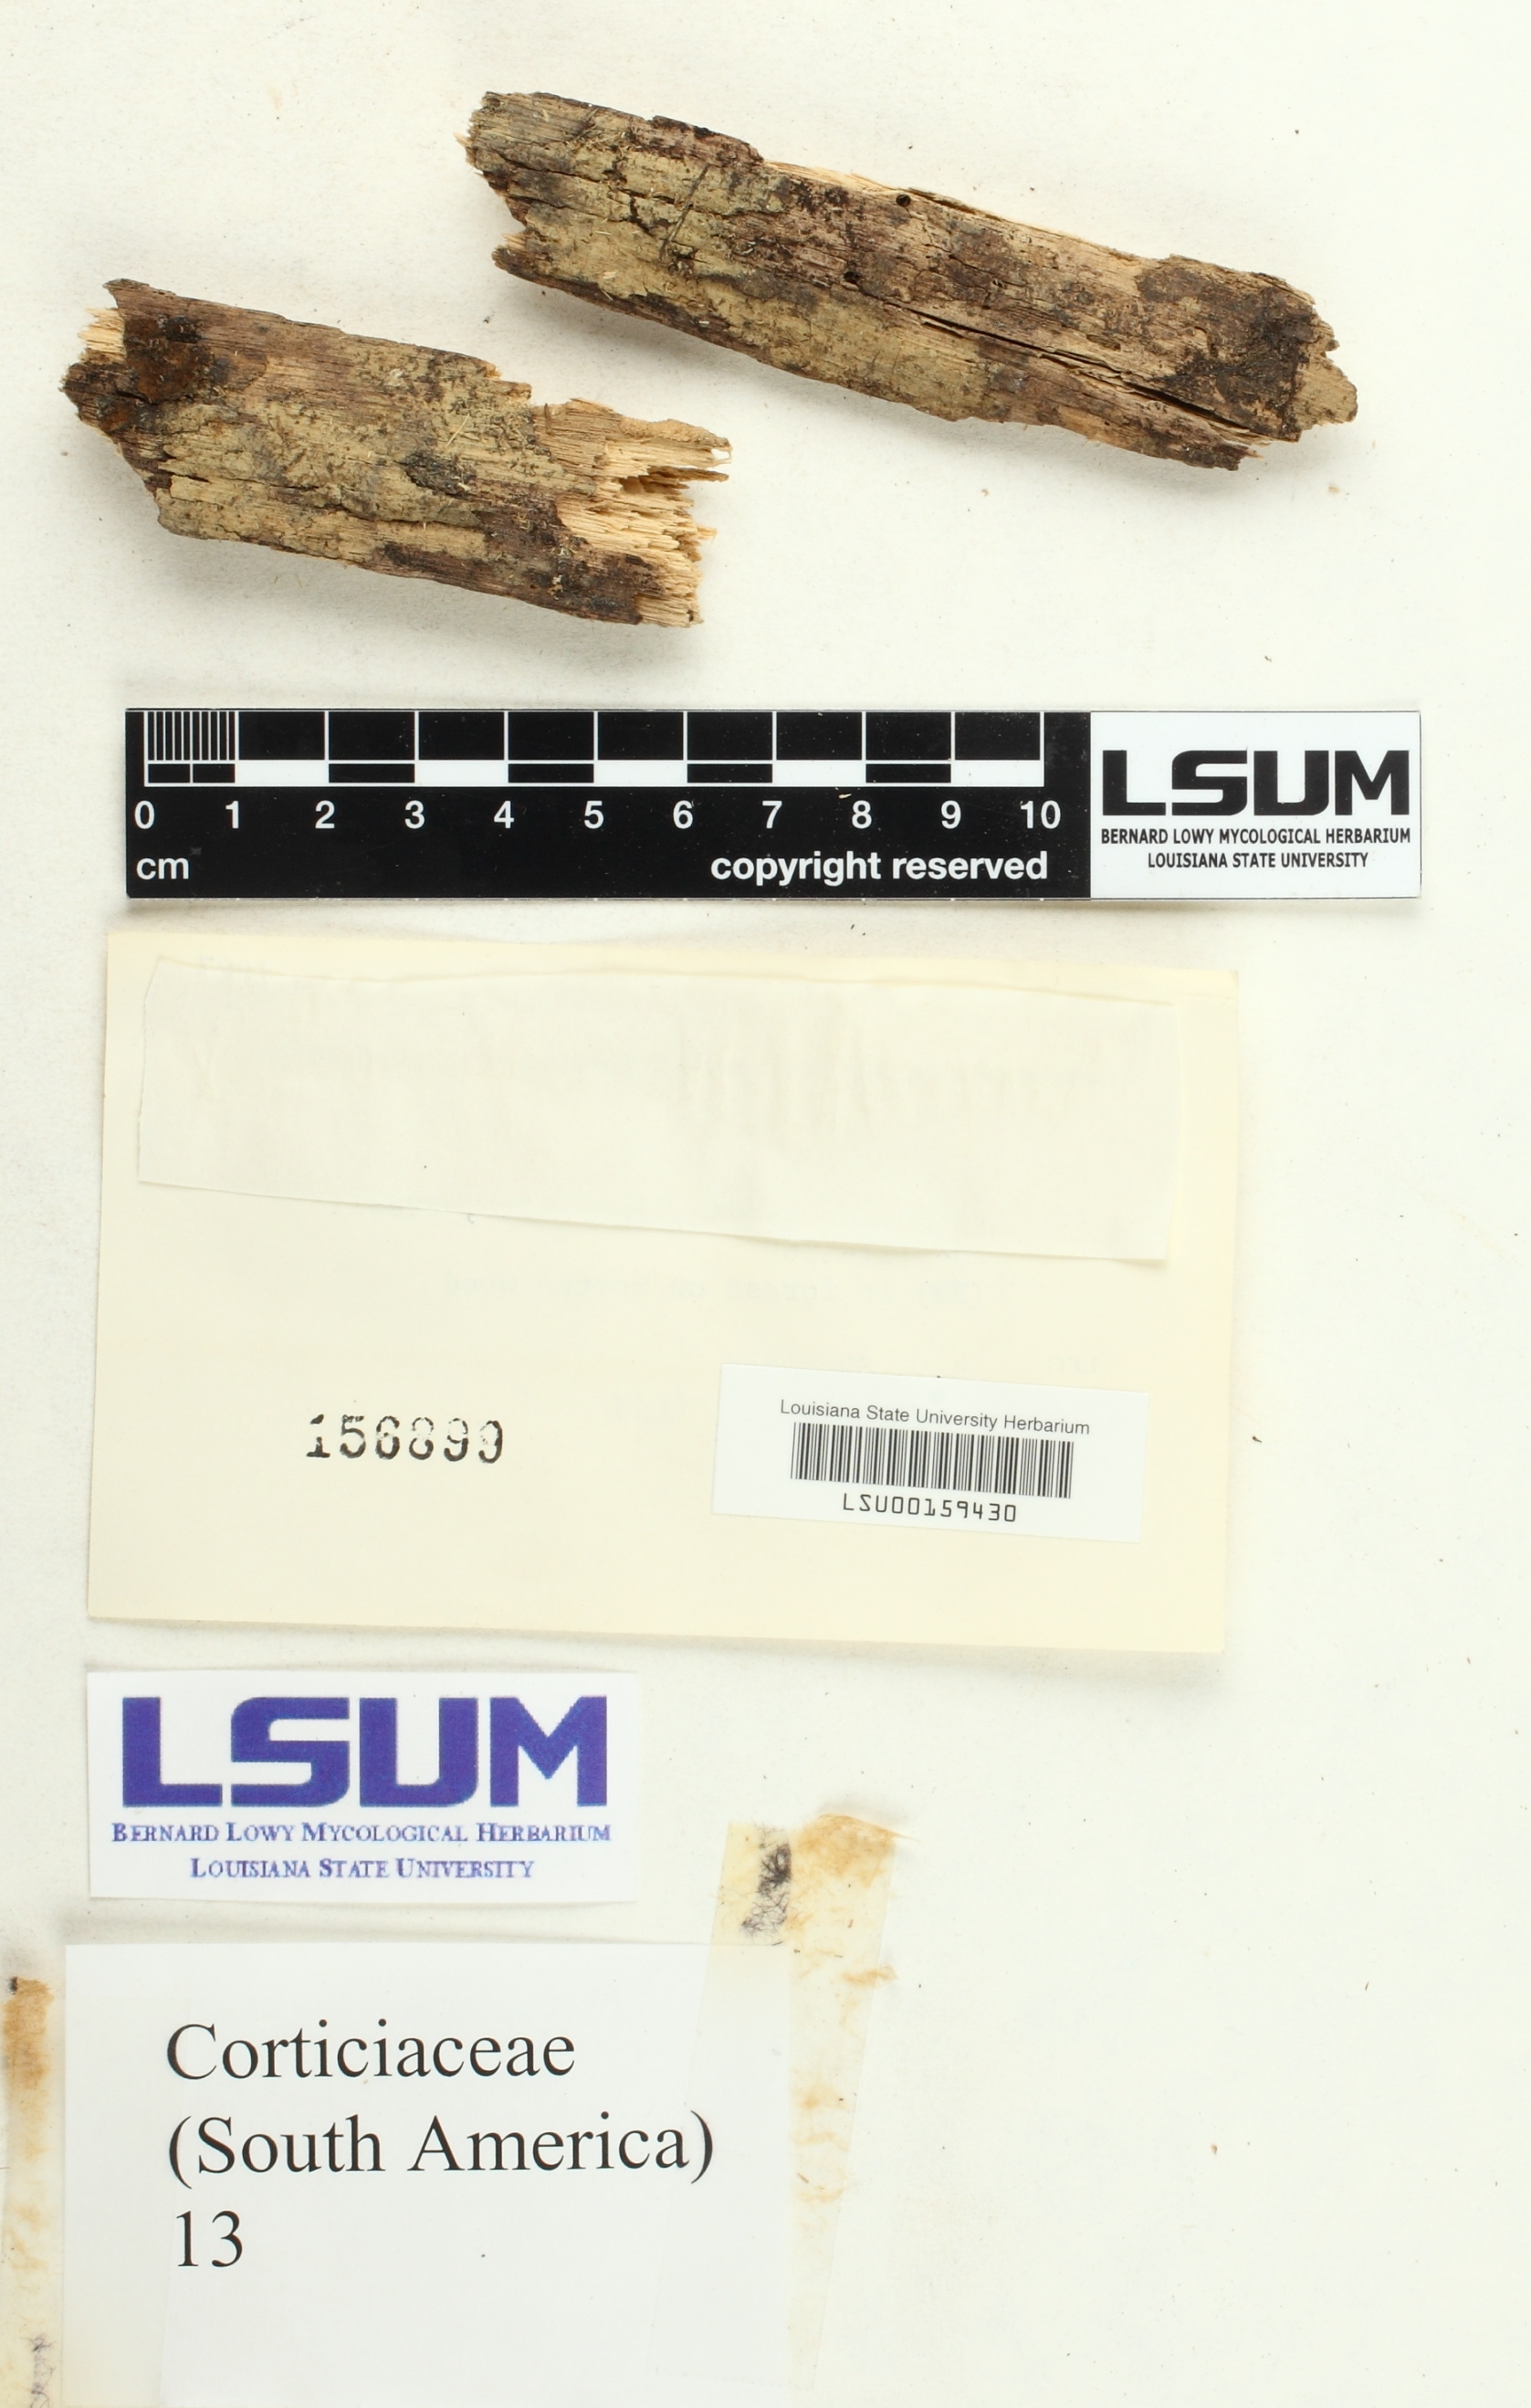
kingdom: Fungi
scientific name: Fungi
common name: Fungi
